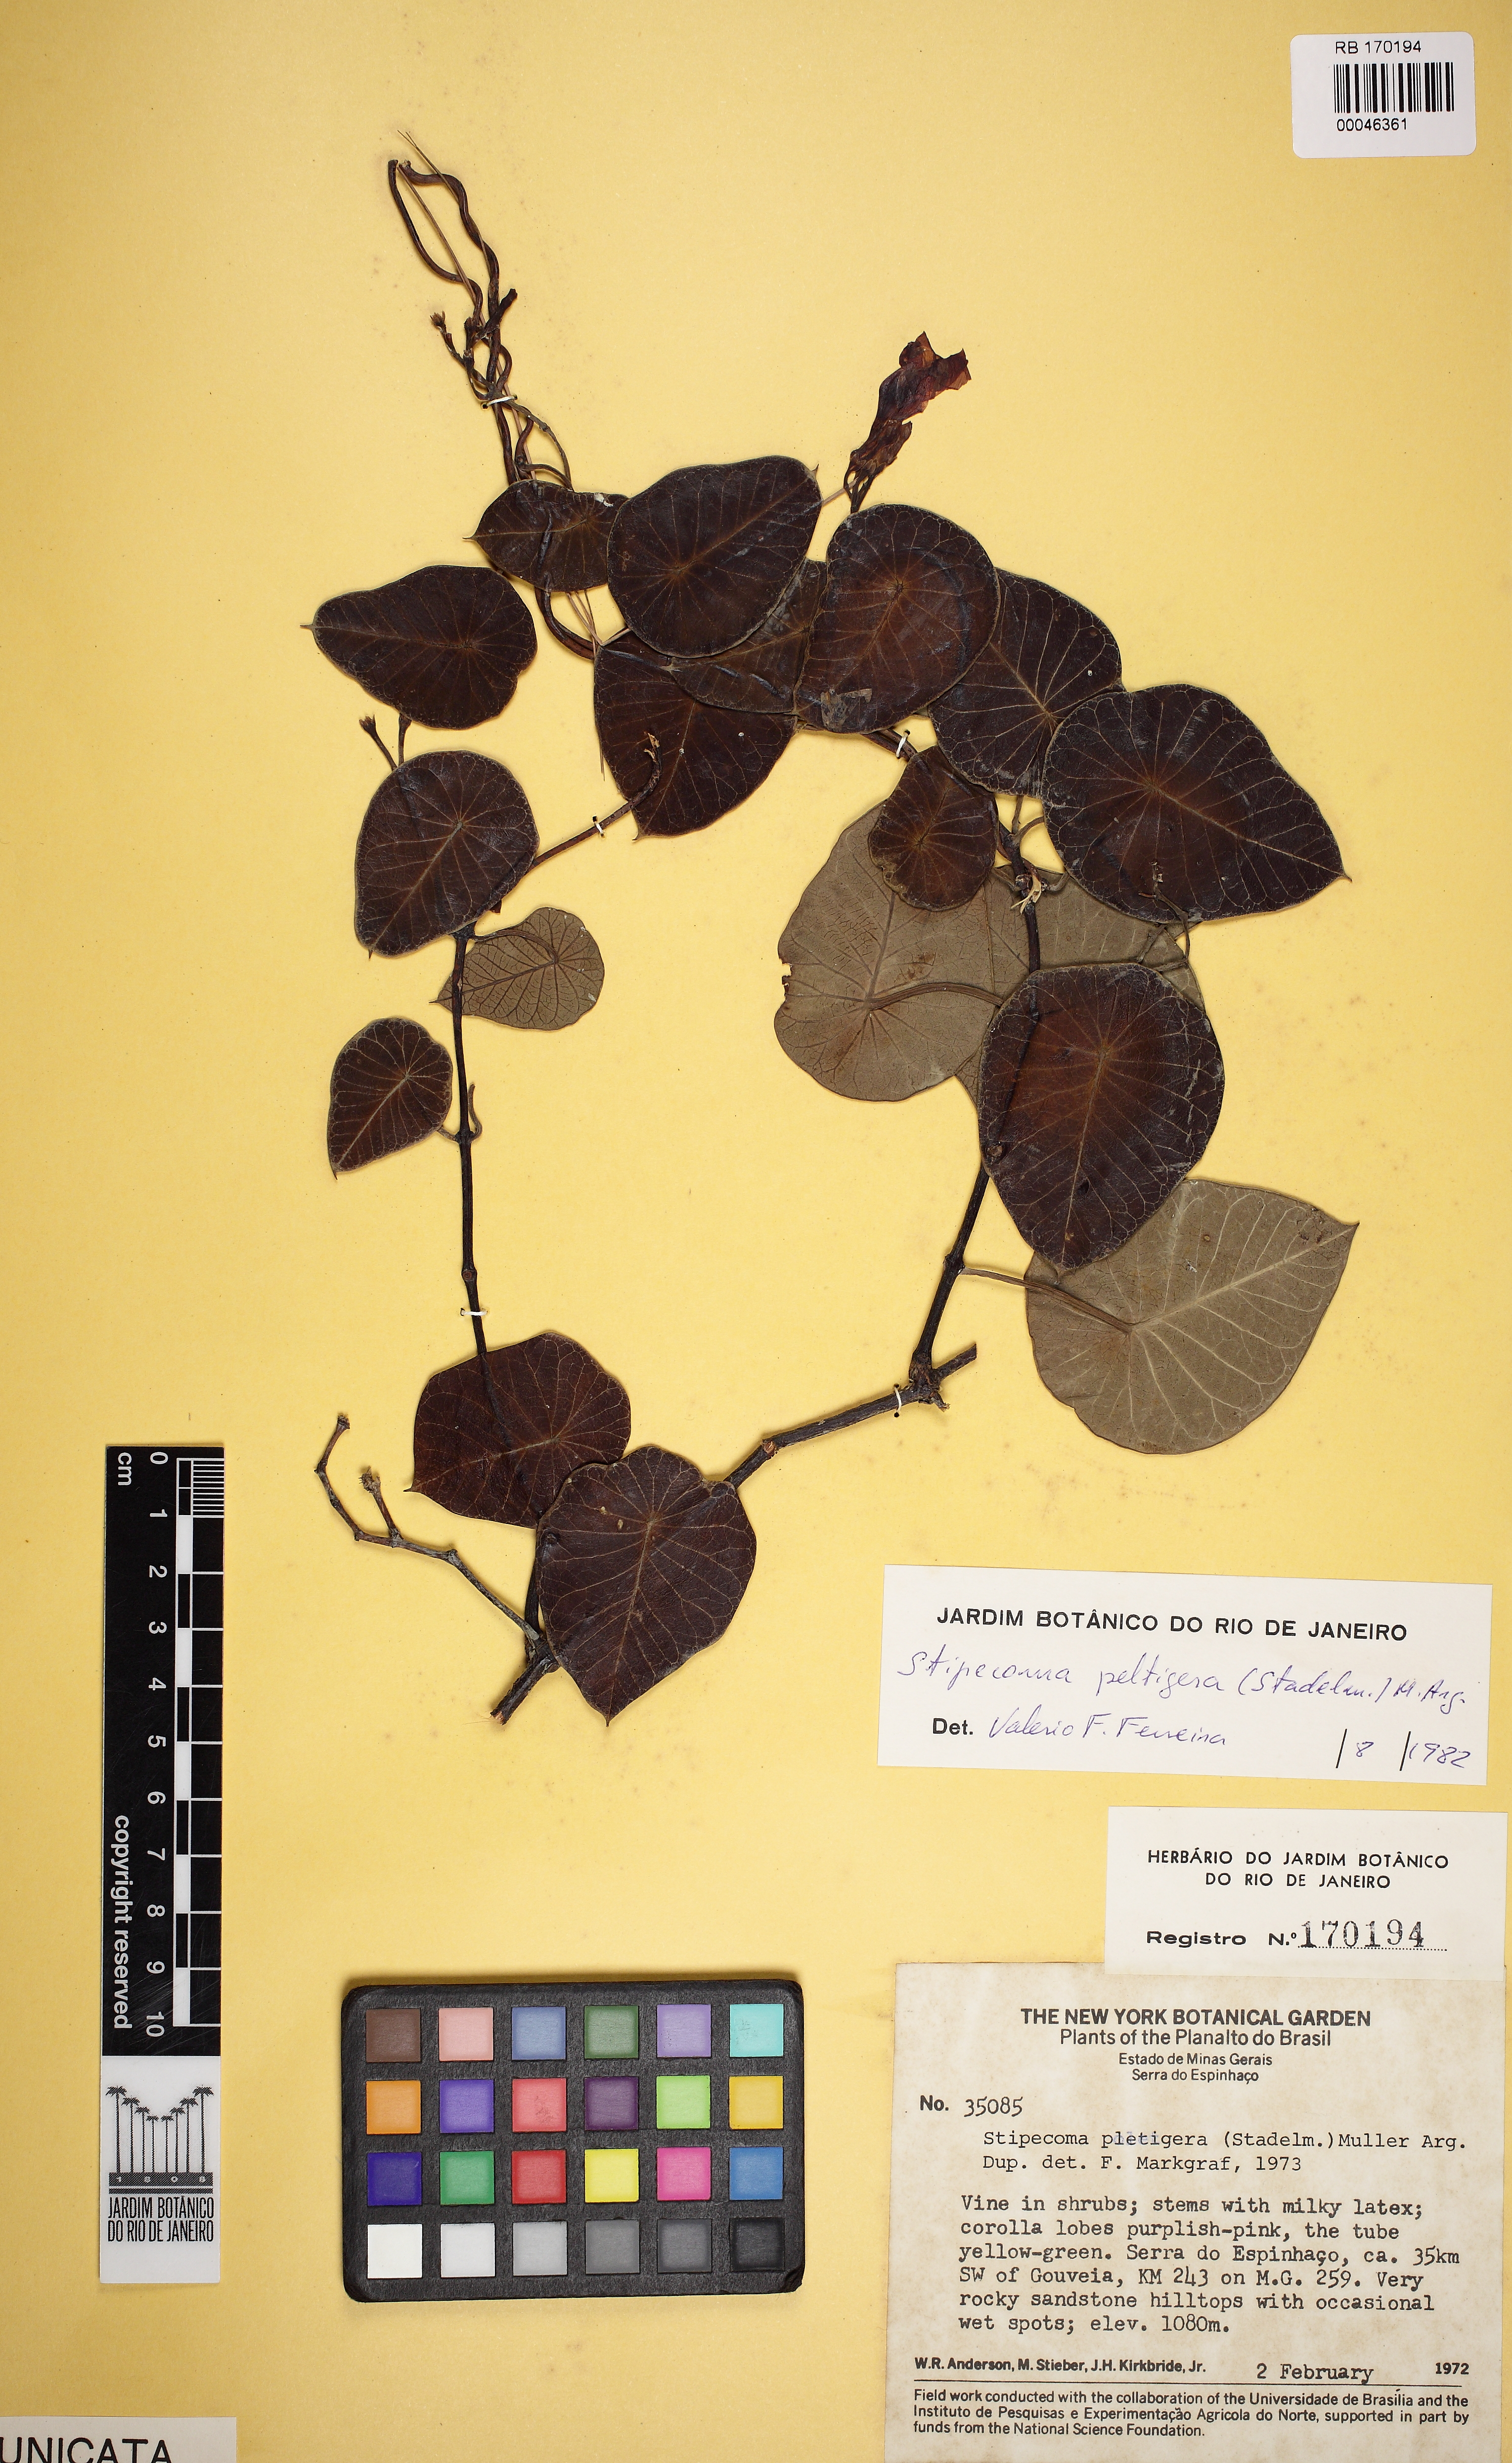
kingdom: Plantae
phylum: Tracheophyta
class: Magnoliopsida
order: Gentianales
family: Apocynaceae
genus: Stipecoma
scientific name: Stipecoma peltigera
